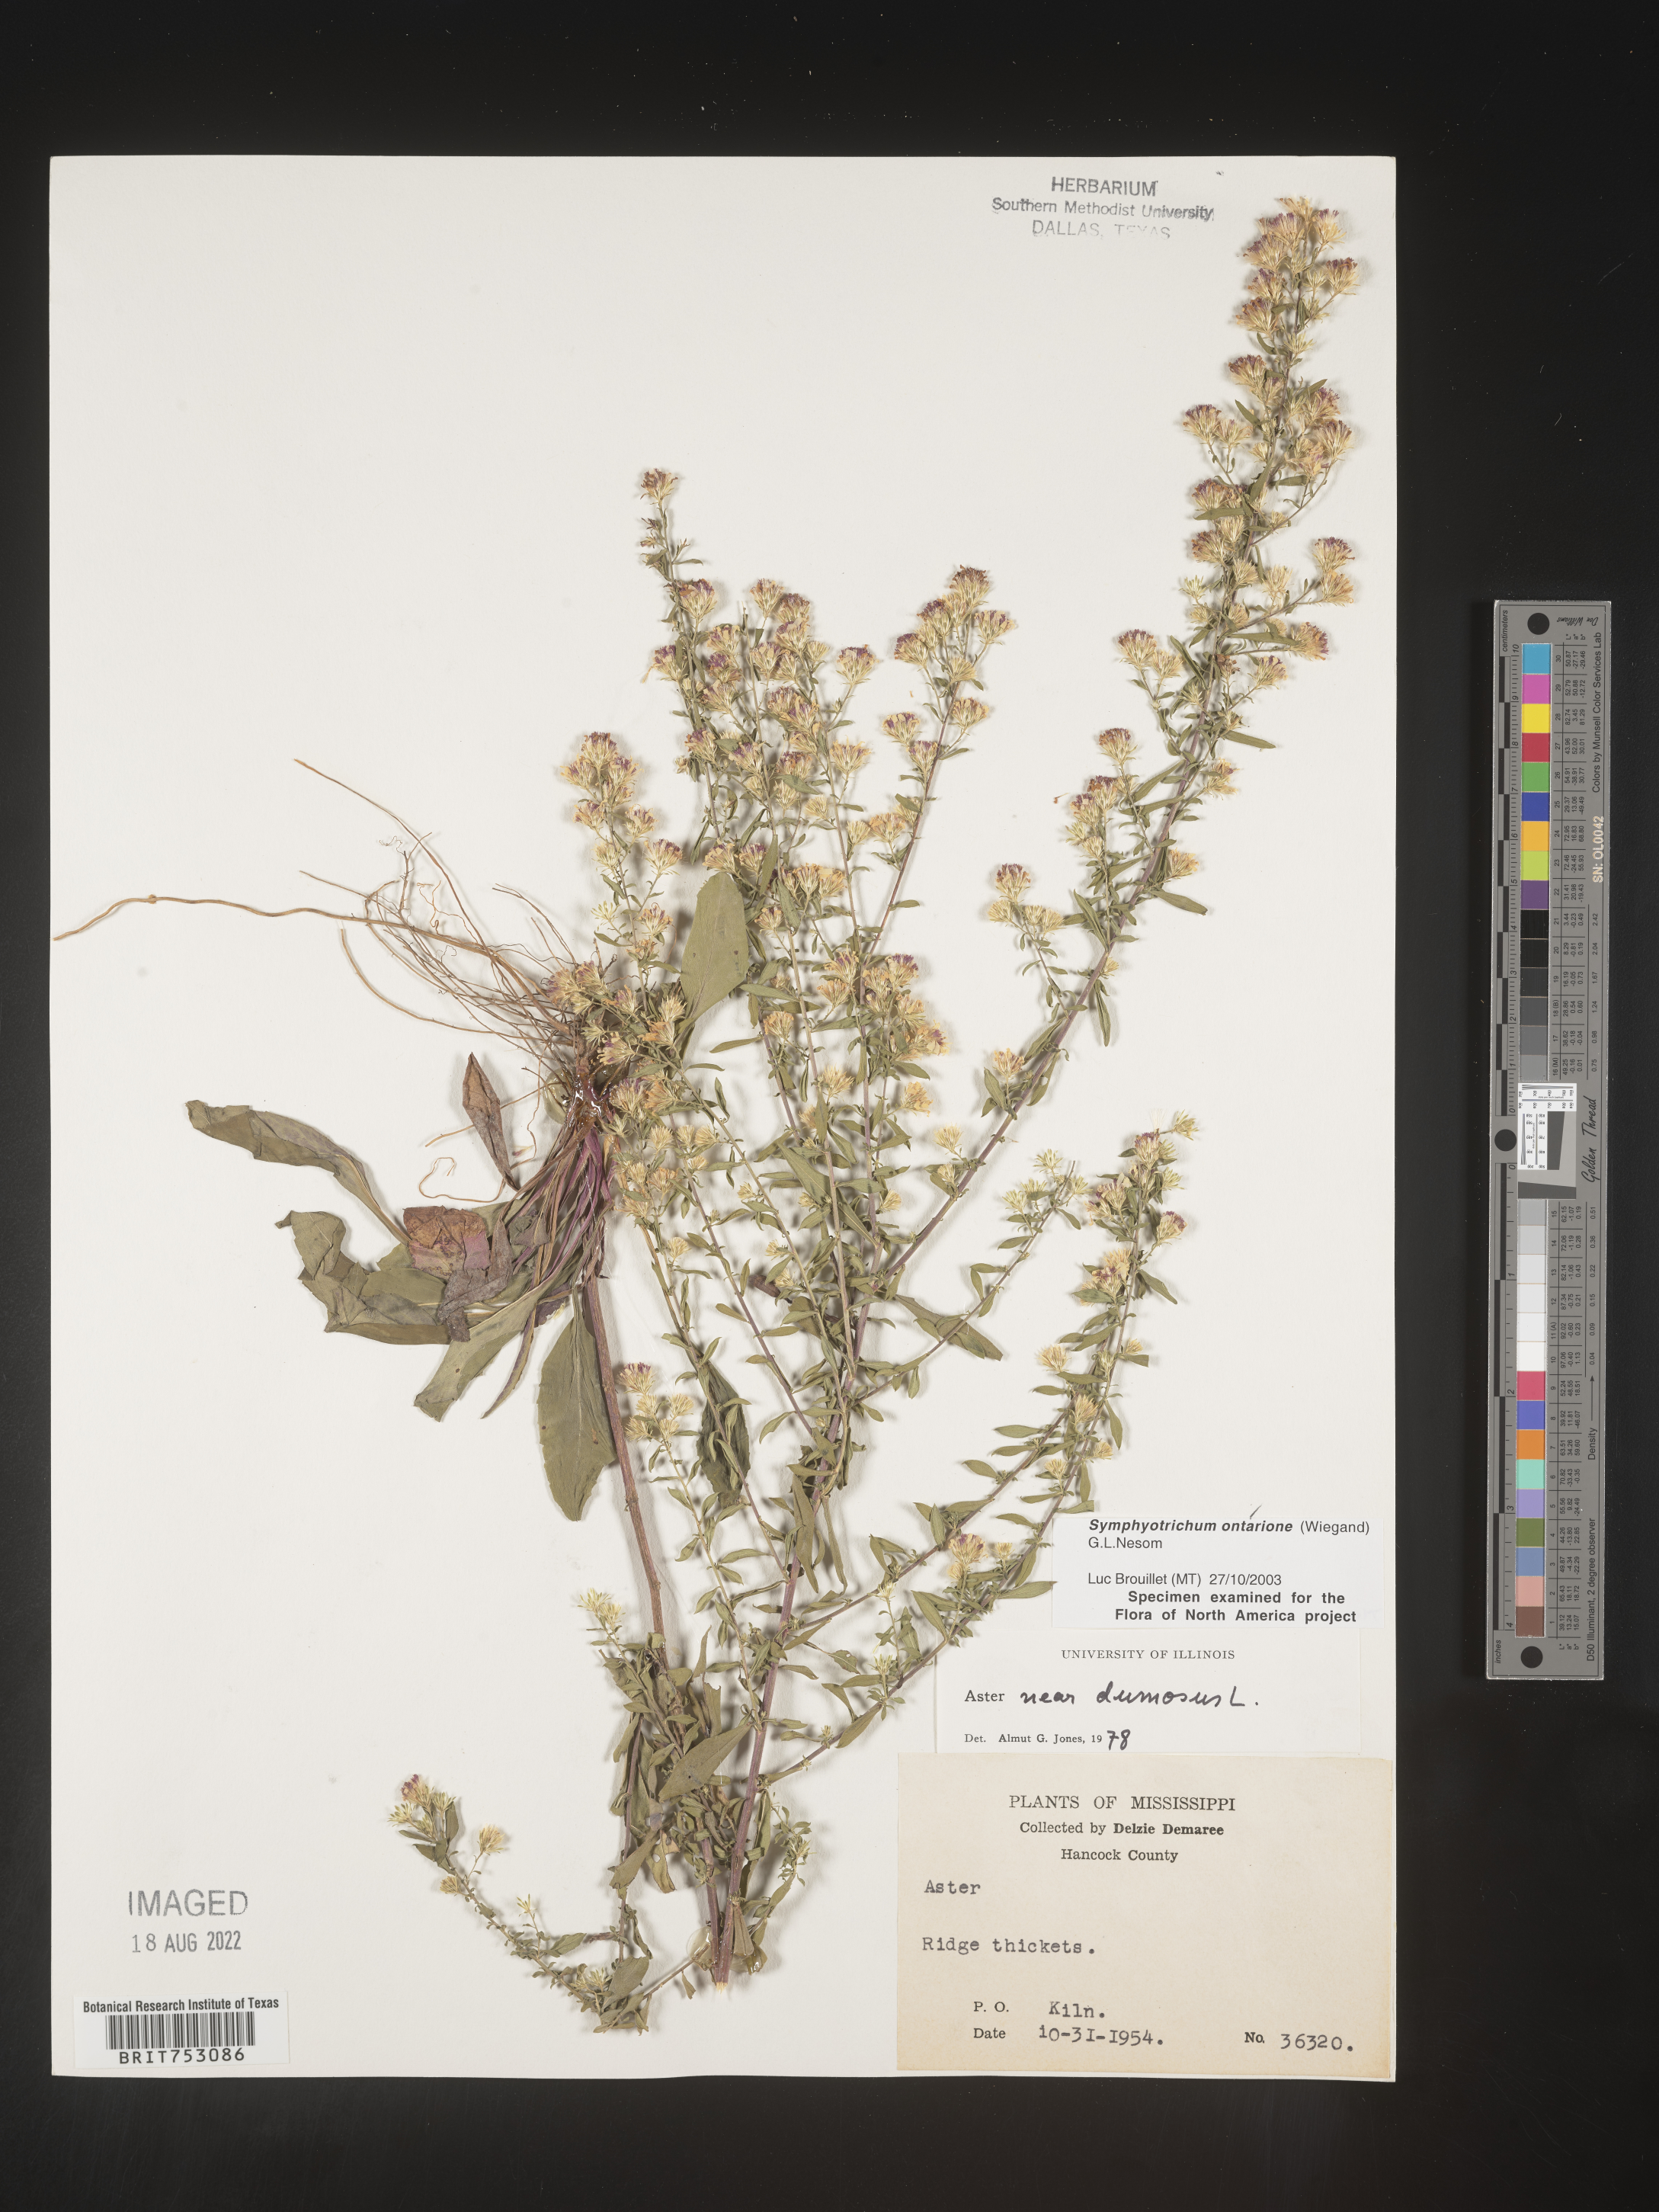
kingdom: Plantae
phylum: Tracheophyta
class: Magnoliopsida
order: Asterales
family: Asteraceae
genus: Symphyotrichum
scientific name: Symphyotrichum ontarionis
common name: Bottomland aster
